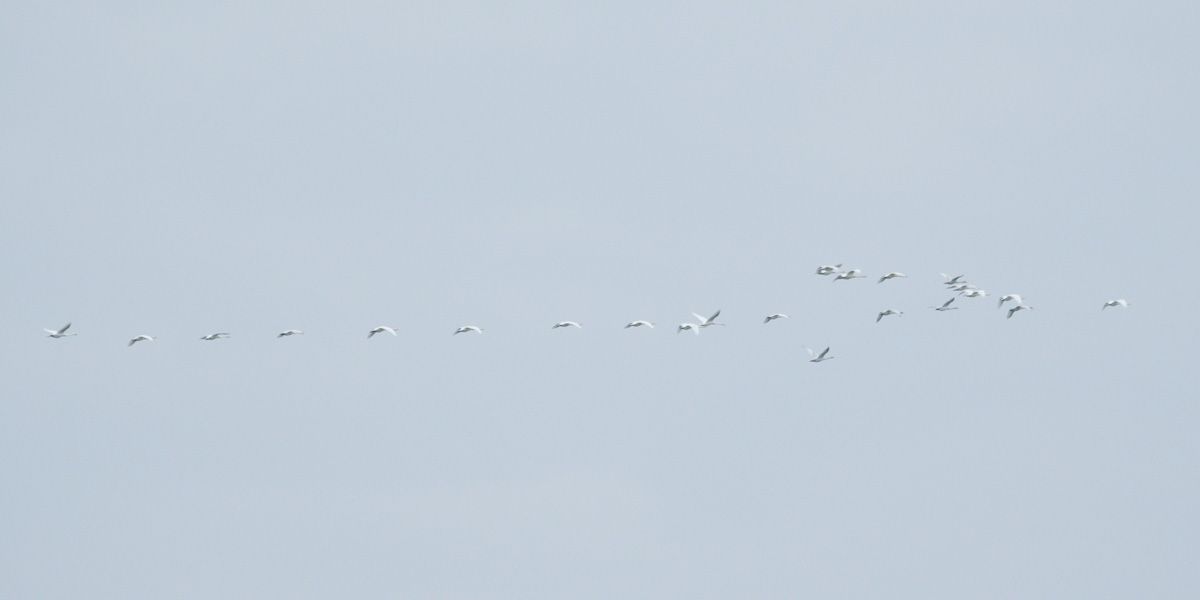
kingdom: Animalia
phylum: Chordata
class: Aves
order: Anseriformes
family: Anatidae
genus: Cygnus
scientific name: Cygnus cygnus
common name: Whooper swan
